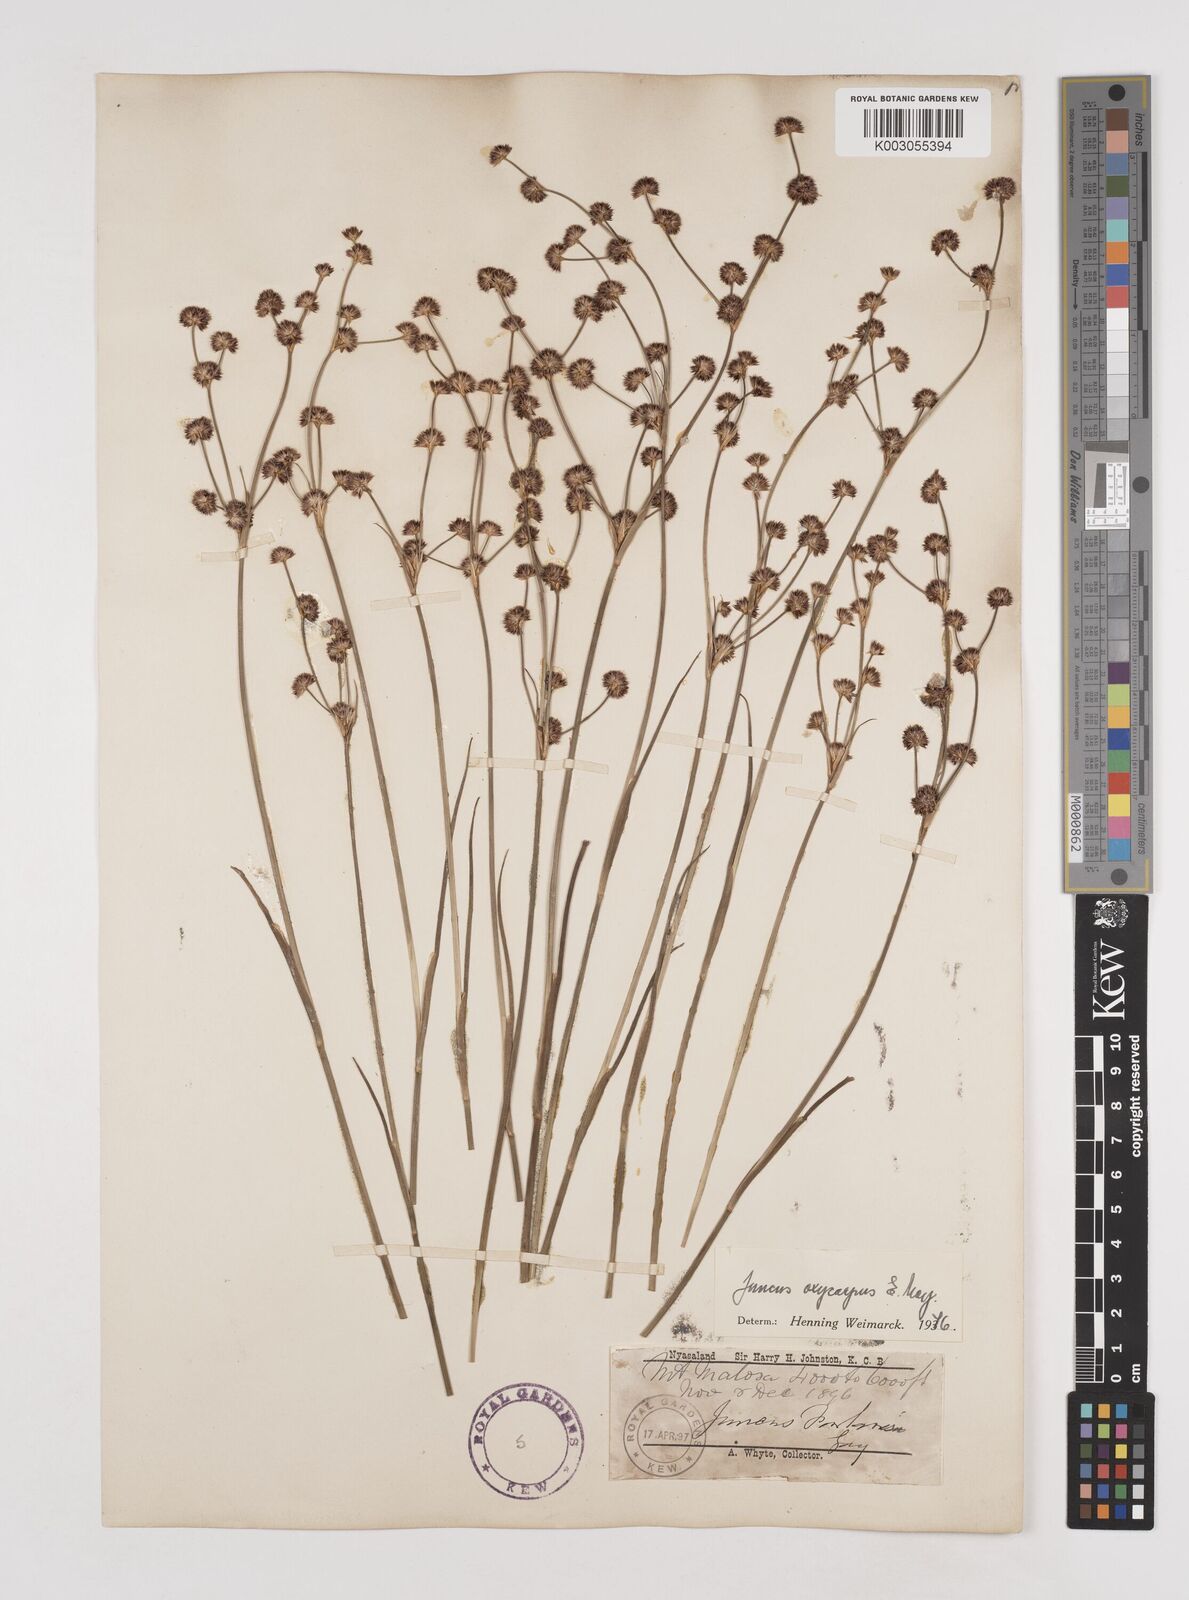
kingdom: Plantae
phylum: Tracheophyta
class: Liliopsida
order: Poales
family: Juncaceae
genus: Juncus
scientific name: Juncus oxycarpus
